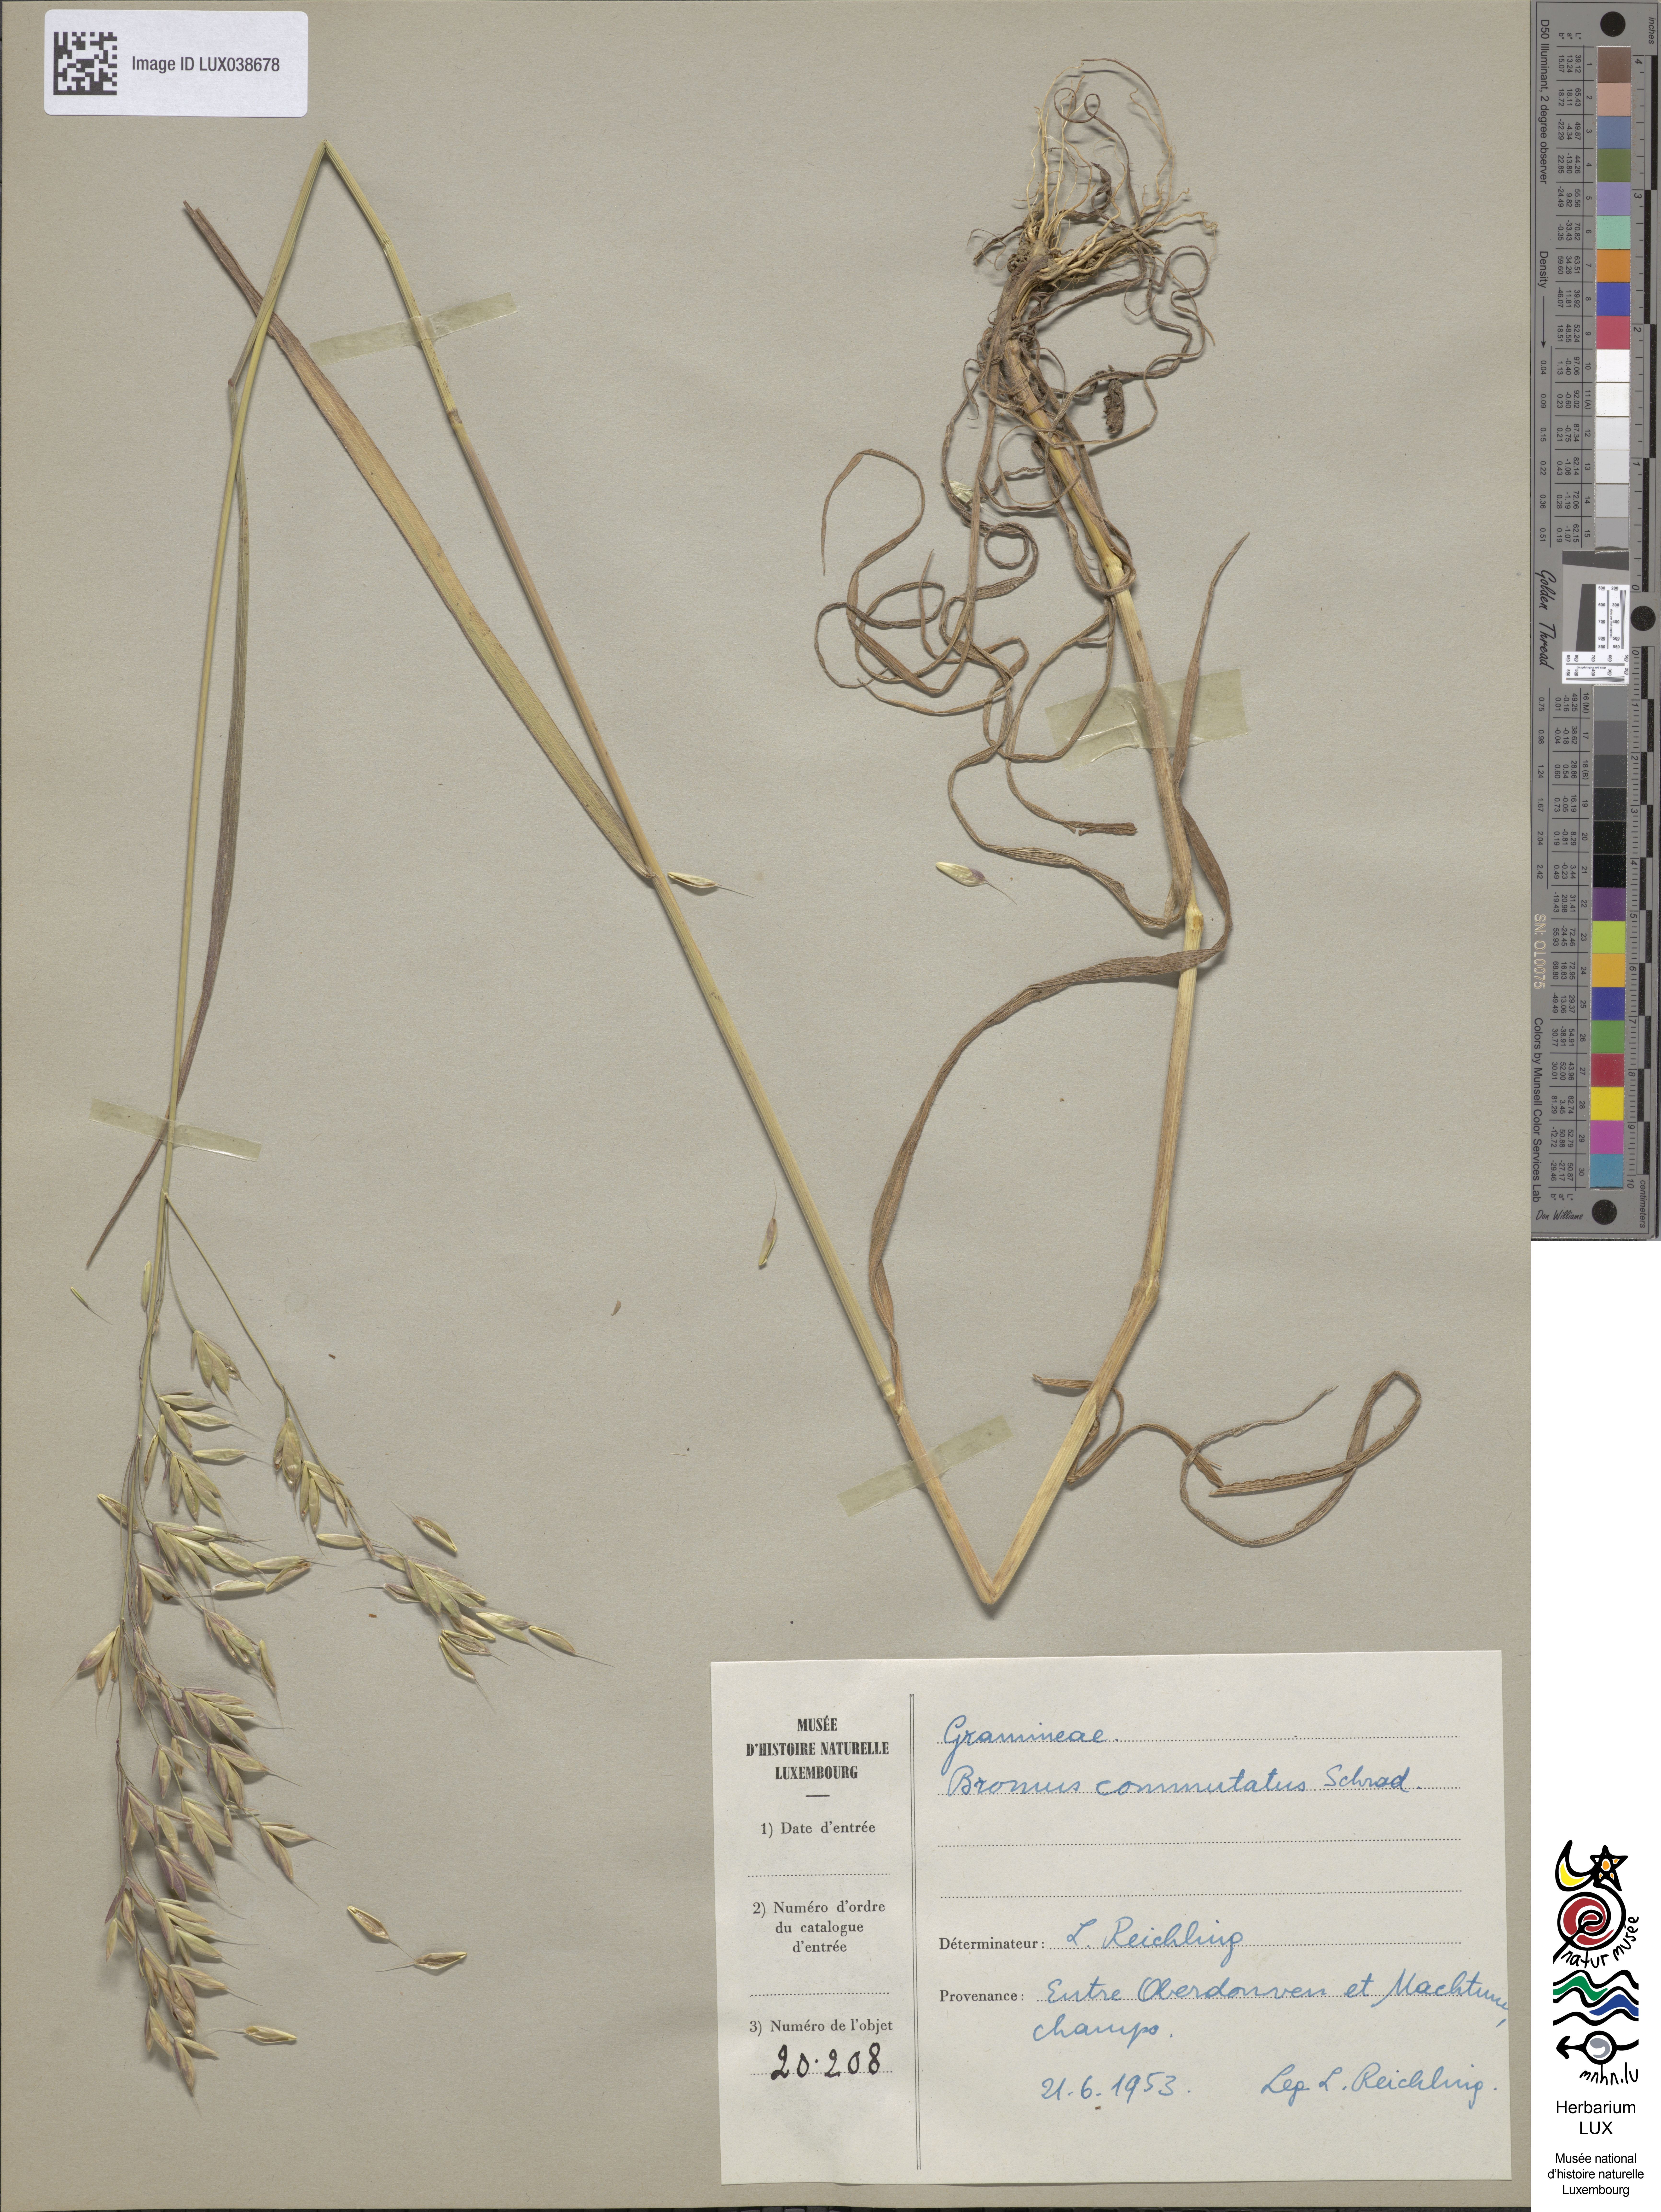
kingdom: Plantae
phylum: Tracheophyta
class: Liliopsida
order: Poales
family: Poaceae
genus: Bromus
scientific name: Bromus commutatus
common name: Meadow brome
